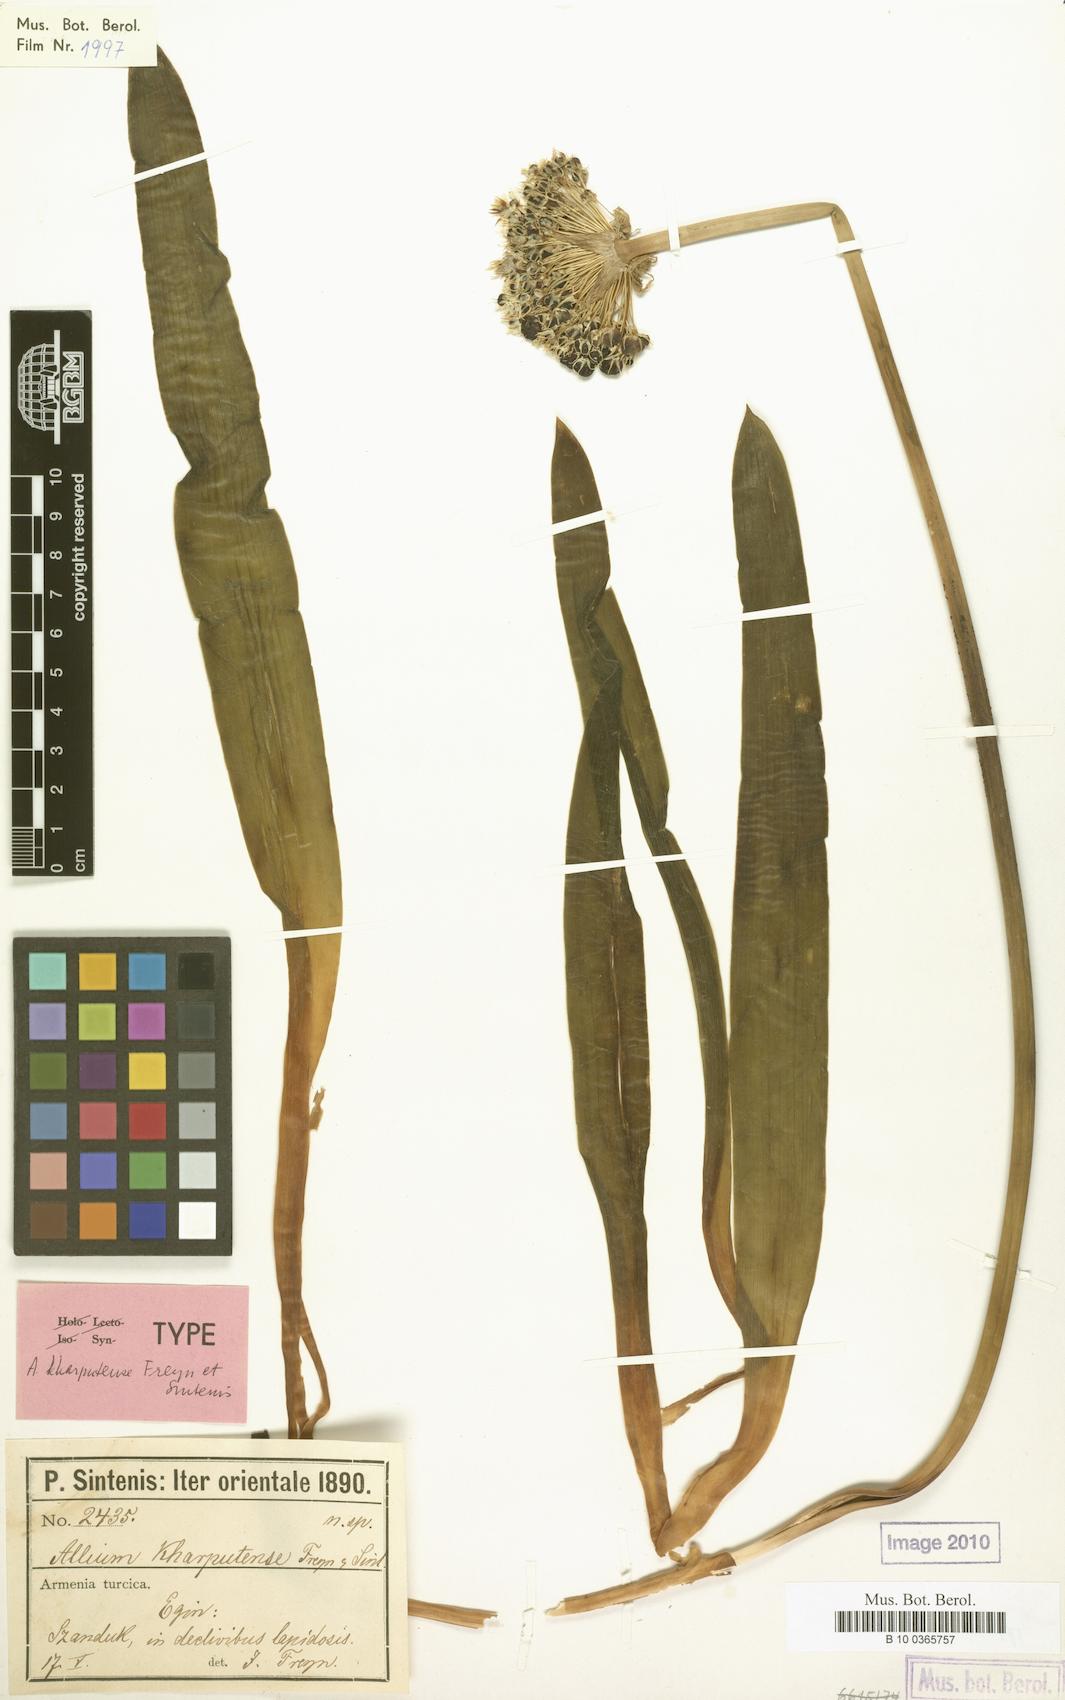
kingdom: Plantae
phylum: Tracheophyta
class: Liliopsida
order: Asparagales
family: Amaryllidaceae
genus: Allium
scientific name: Allium kharputense
